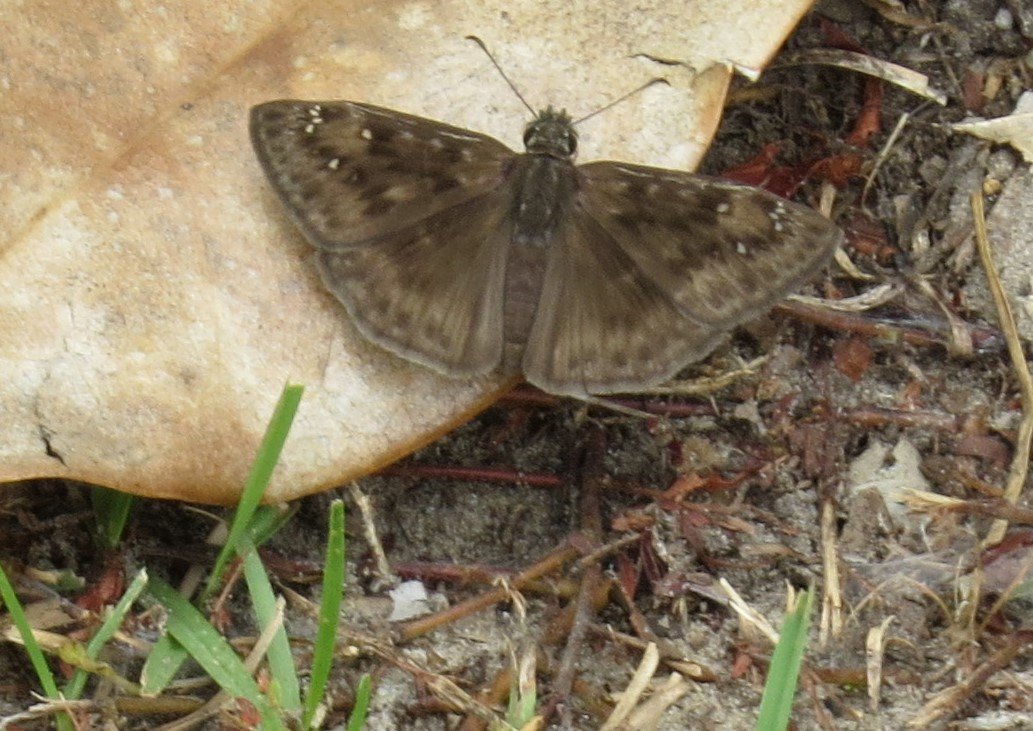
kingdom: Animalia
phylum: Arthropoda
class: Insecta
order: Lepidoptera
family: Hesperiidae
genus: Gesta
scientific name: Gesta
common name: Horace's Duskywing
